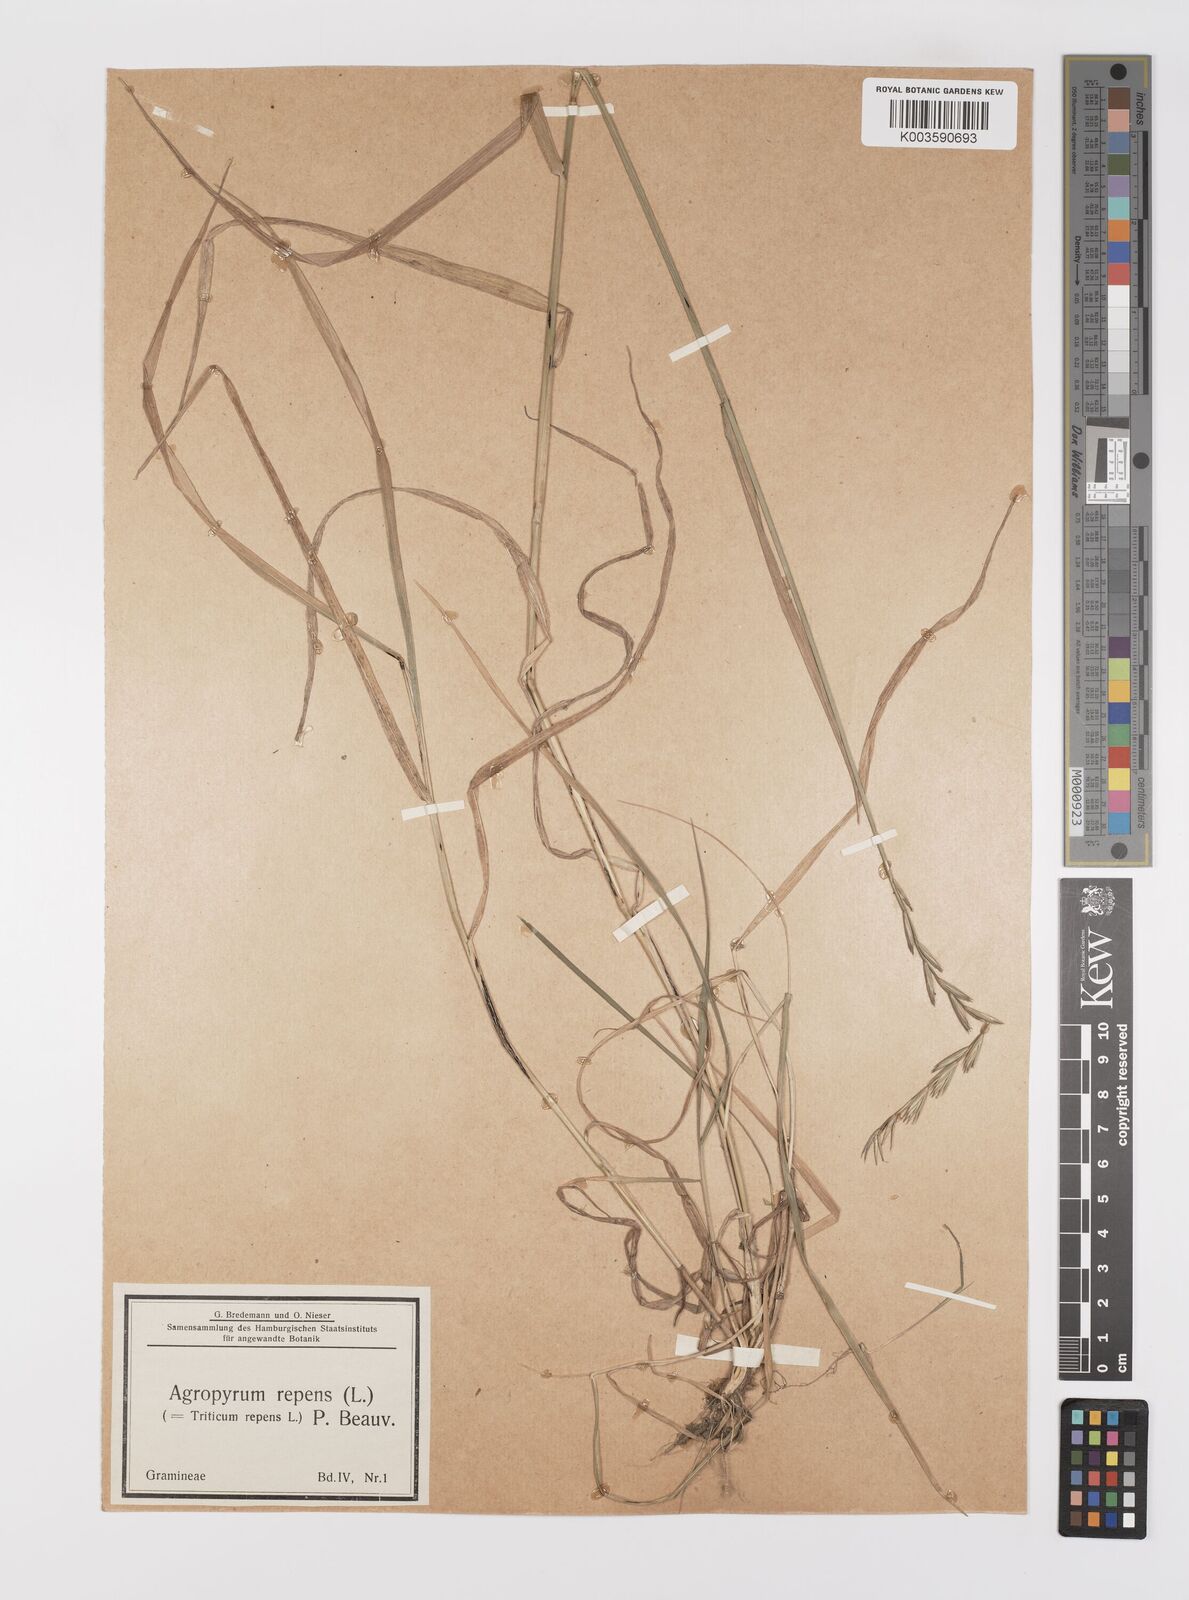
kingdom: Plantae
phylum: Tracheophyta
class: Liliopsida
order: Poales
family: Poaceae
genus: Elymus
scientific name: Elymus repens
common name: Quackgrass
